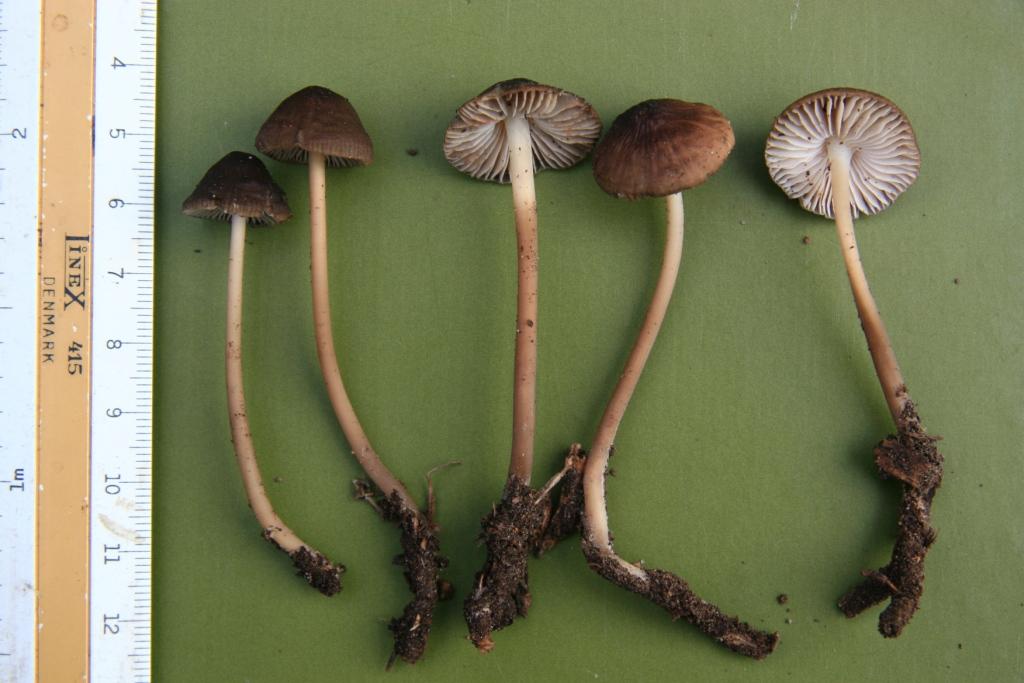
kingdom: Fungi
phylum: Basidiomycota
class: Agaricomycetes
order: Agaricales
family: Mycenaceae
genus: Mycena
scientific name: Mycena megaspora
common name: brusk-huesvamp
